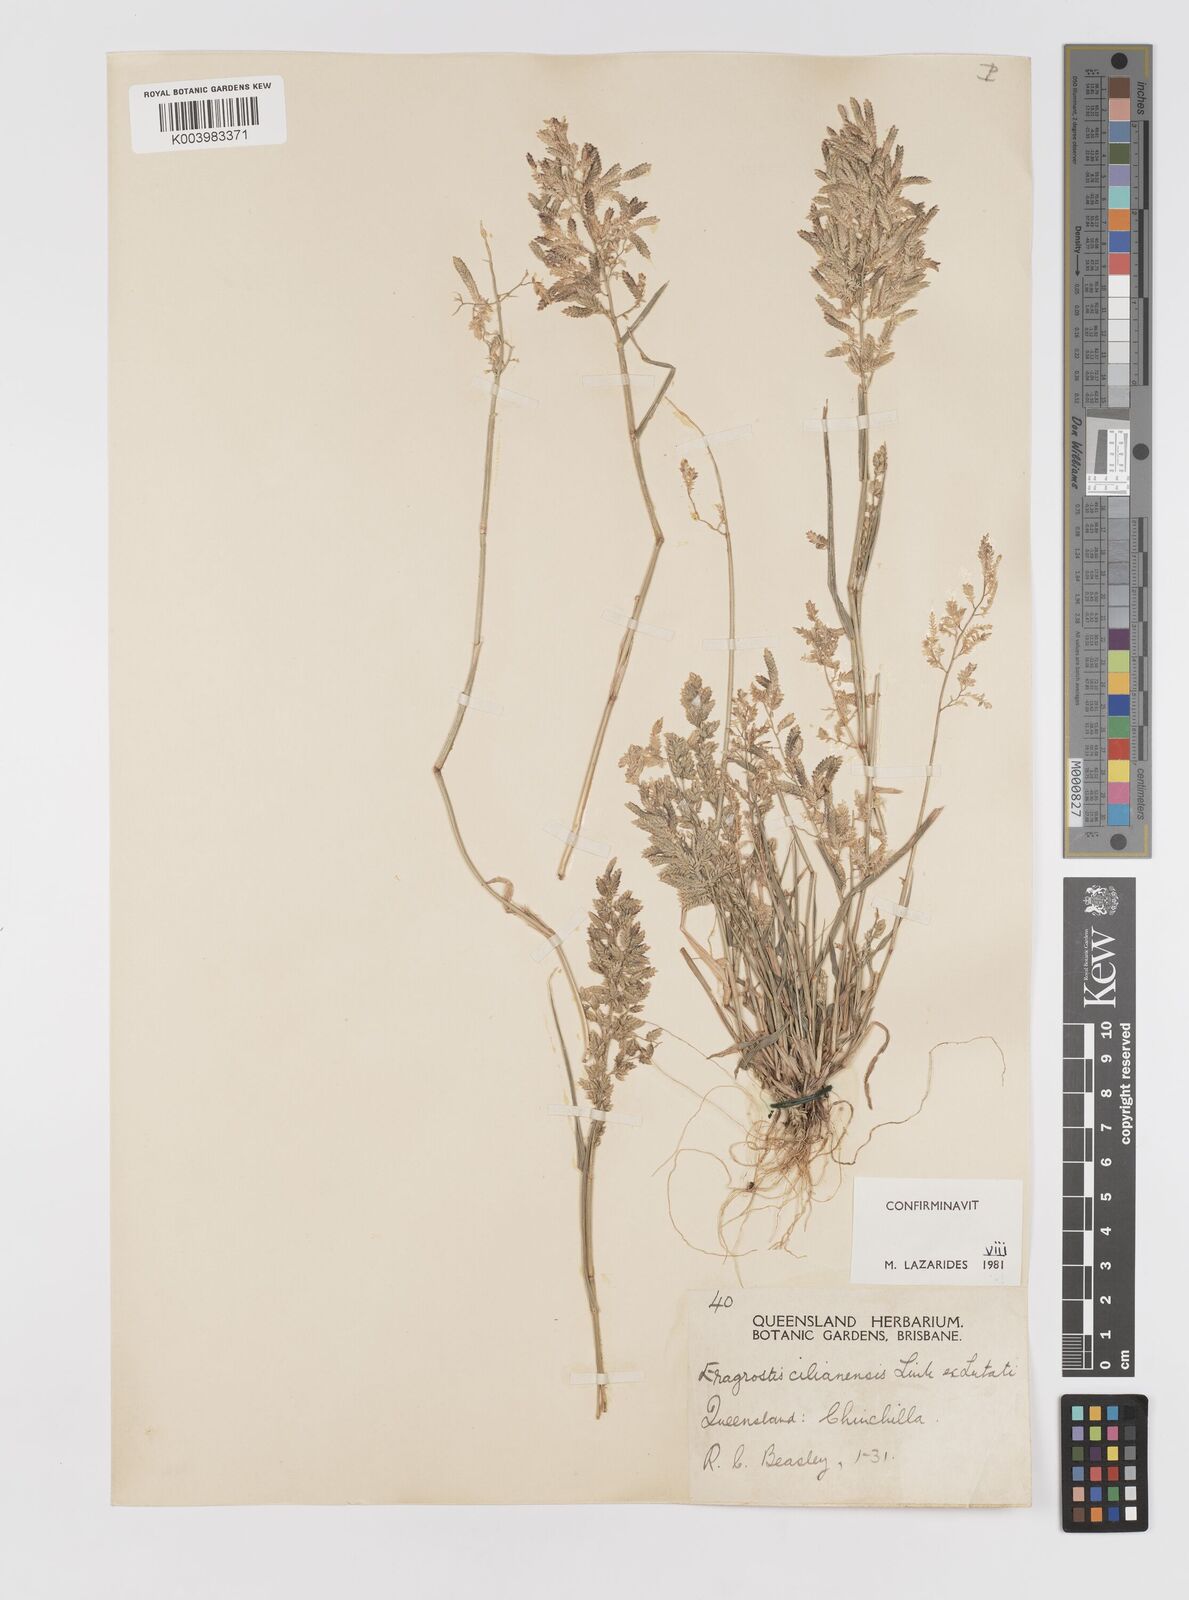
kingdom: Plantae
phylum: Tracheophyta
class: Liliopsida
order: Poales
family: Poaceae
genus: Eragrostis
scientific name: Eragrostis cilianensis
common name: Stinkgrass
